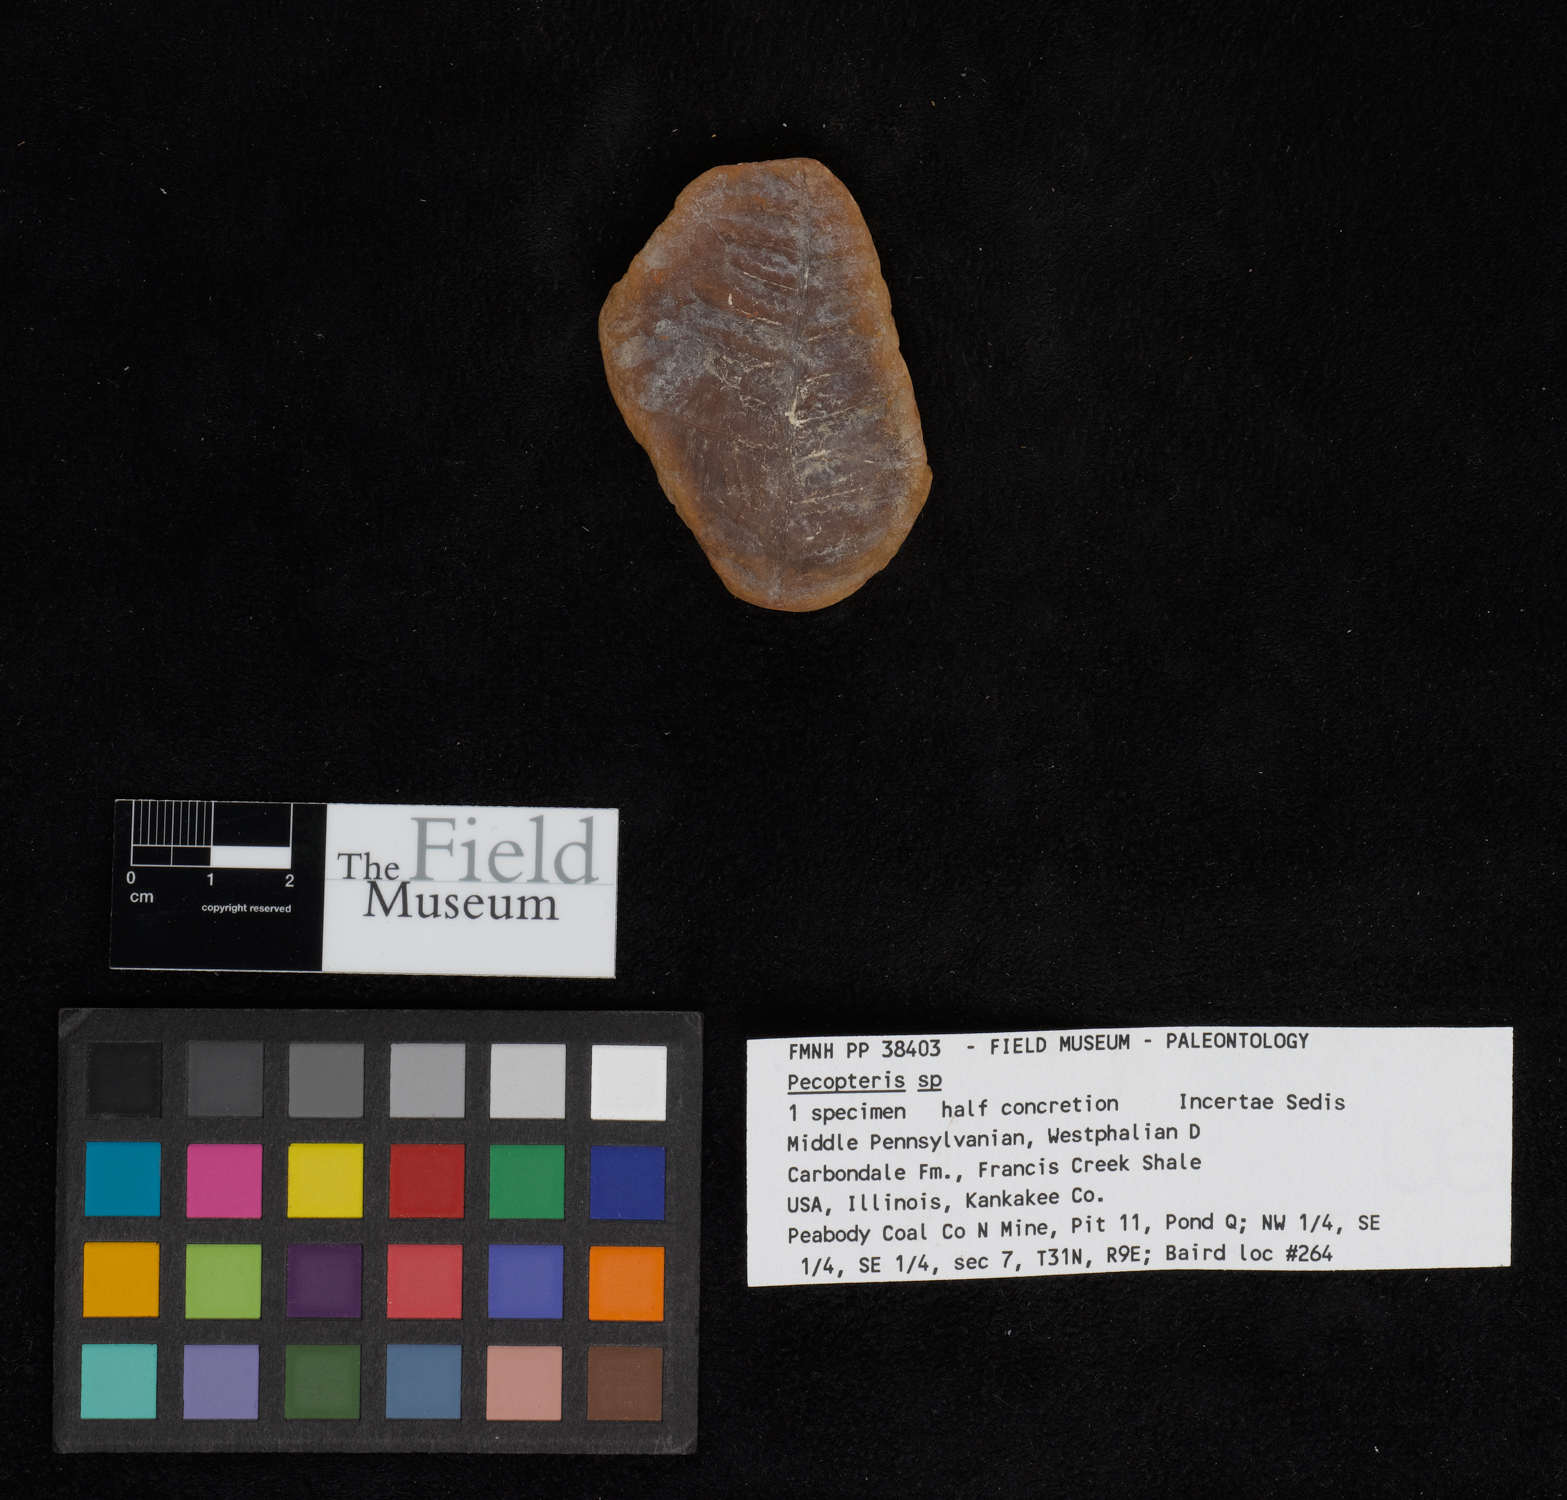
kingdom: Plantae
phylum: Tracheophyta
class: Polypodiopsida
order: Marattiales
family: Asterothecaceae
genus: Pecopteris
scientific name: Pecopteris
